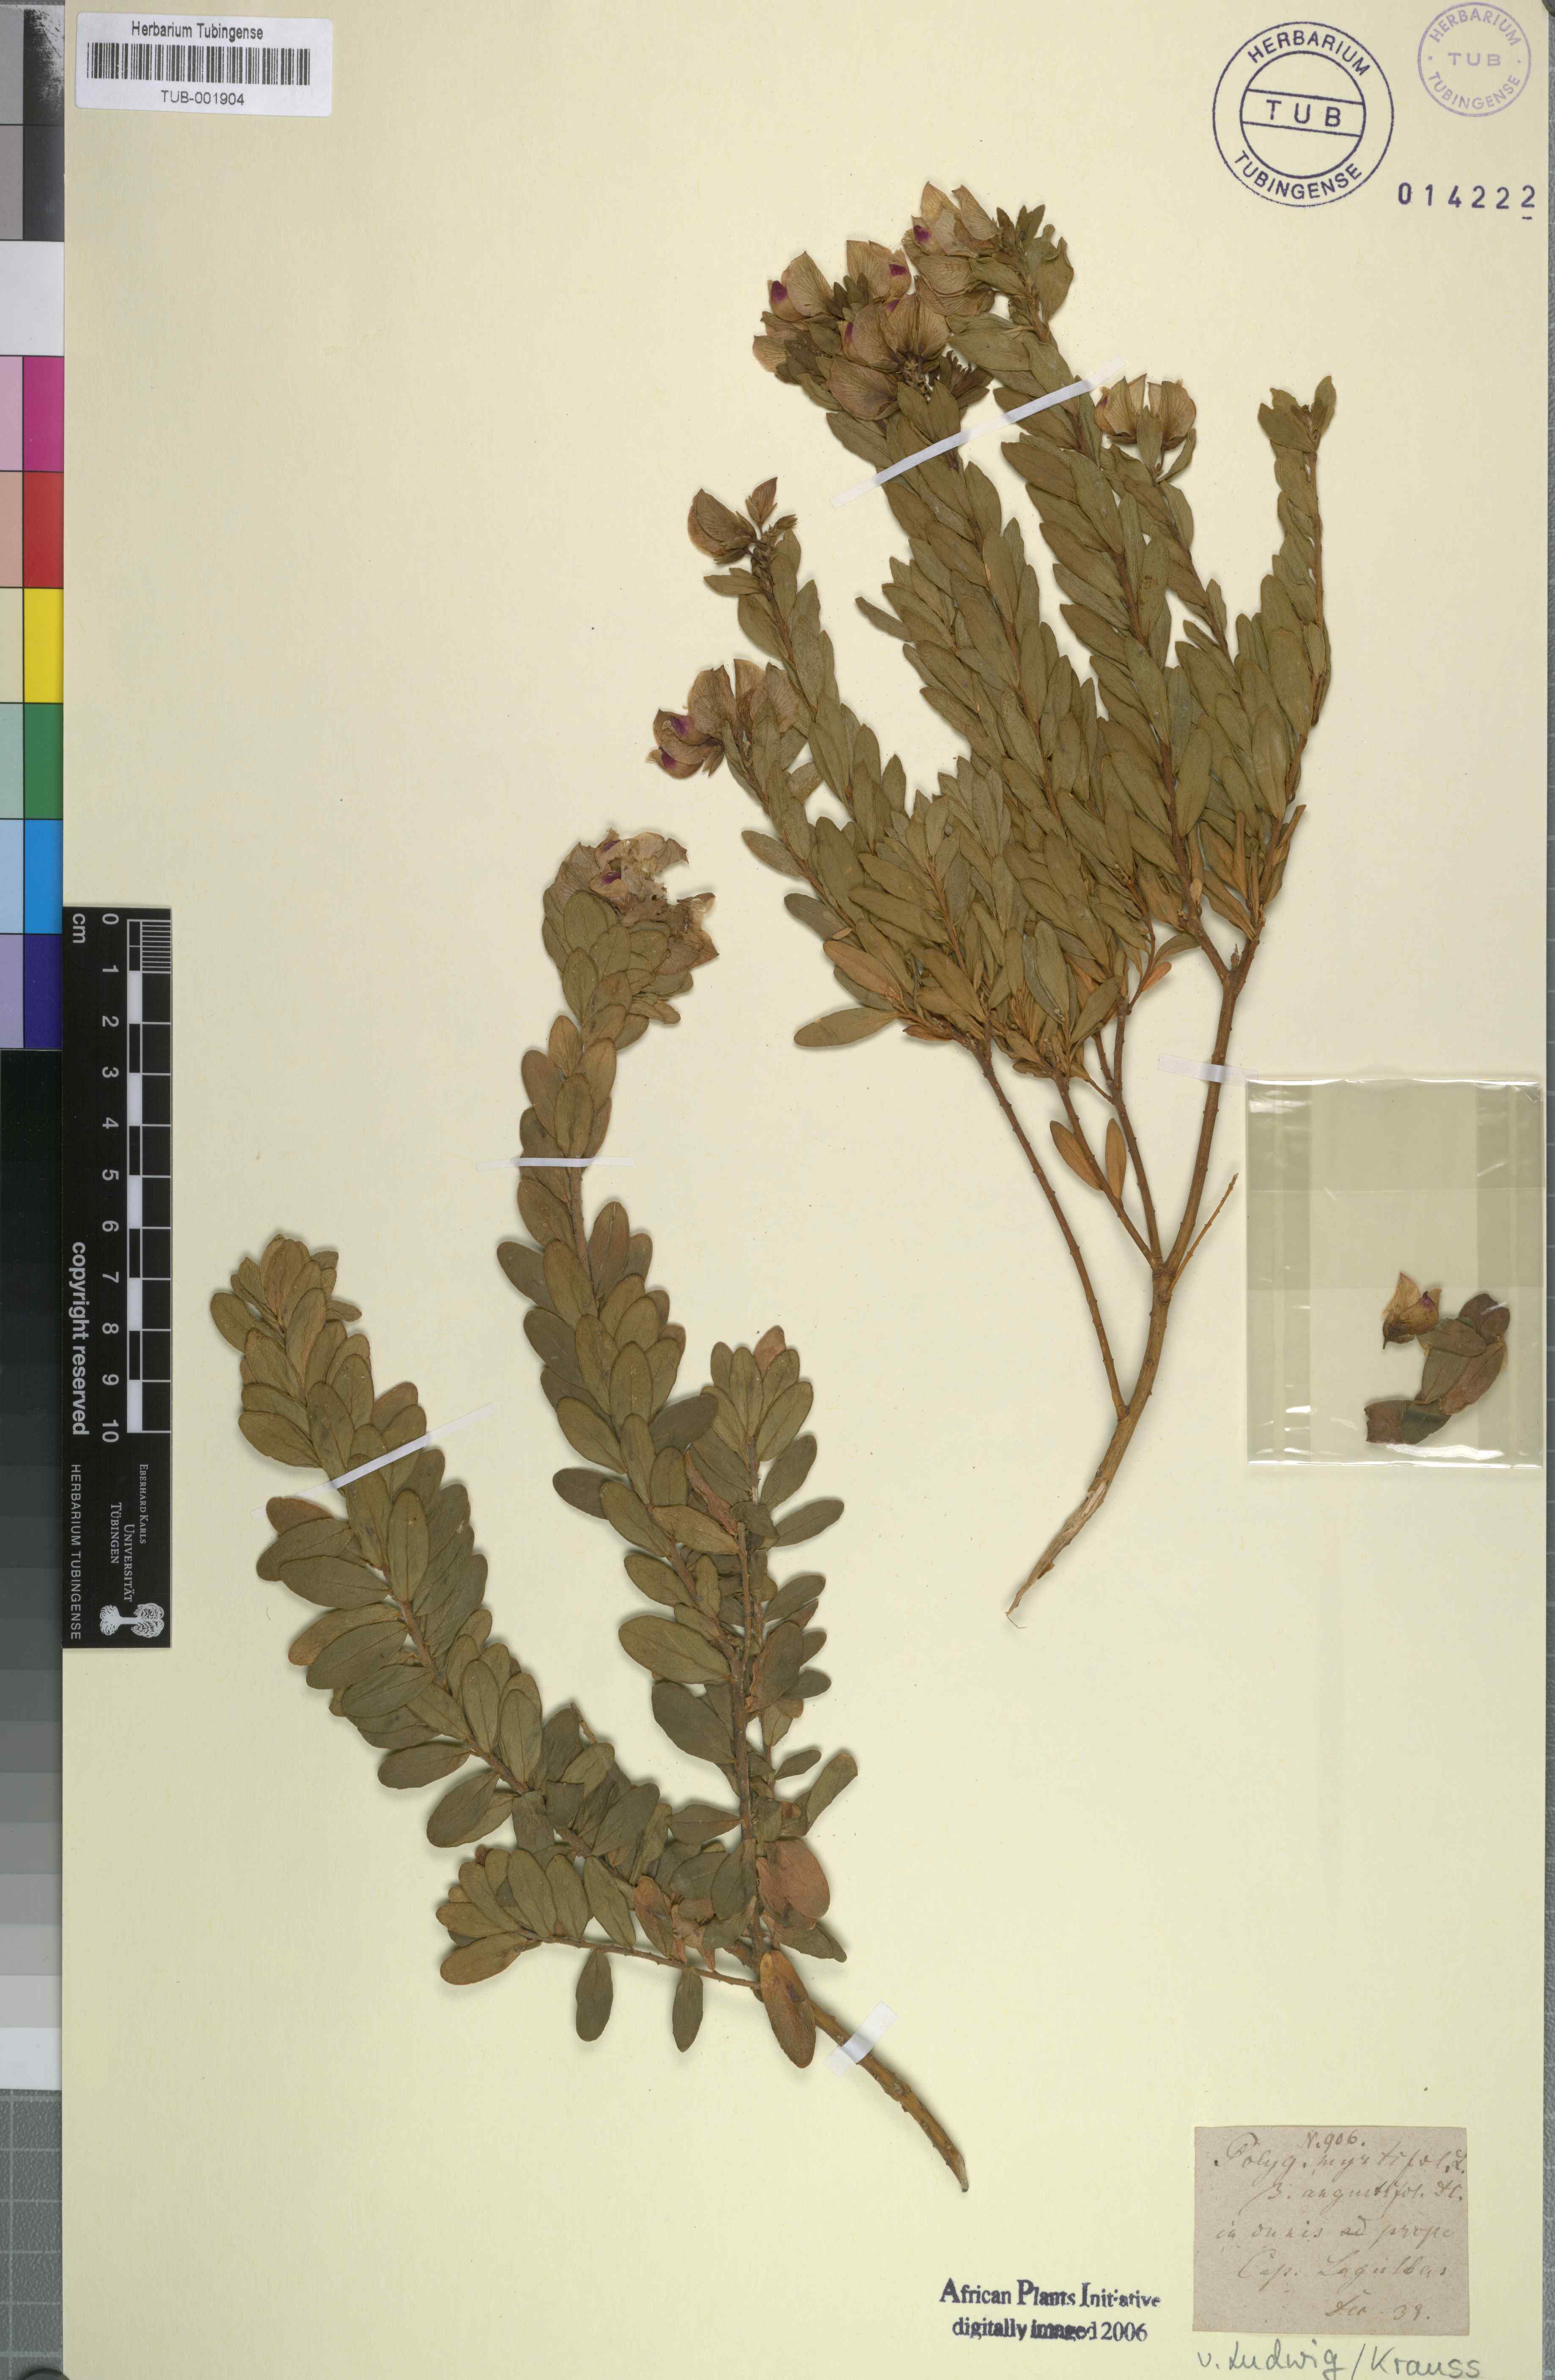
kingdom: Plantae
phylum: Tracheophyta
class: Magnoliopsida
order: Fabales
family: Polygalaceae
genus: Polygala
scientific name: Polygala myrtifolia
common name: Myrtle-leaf milkwort
